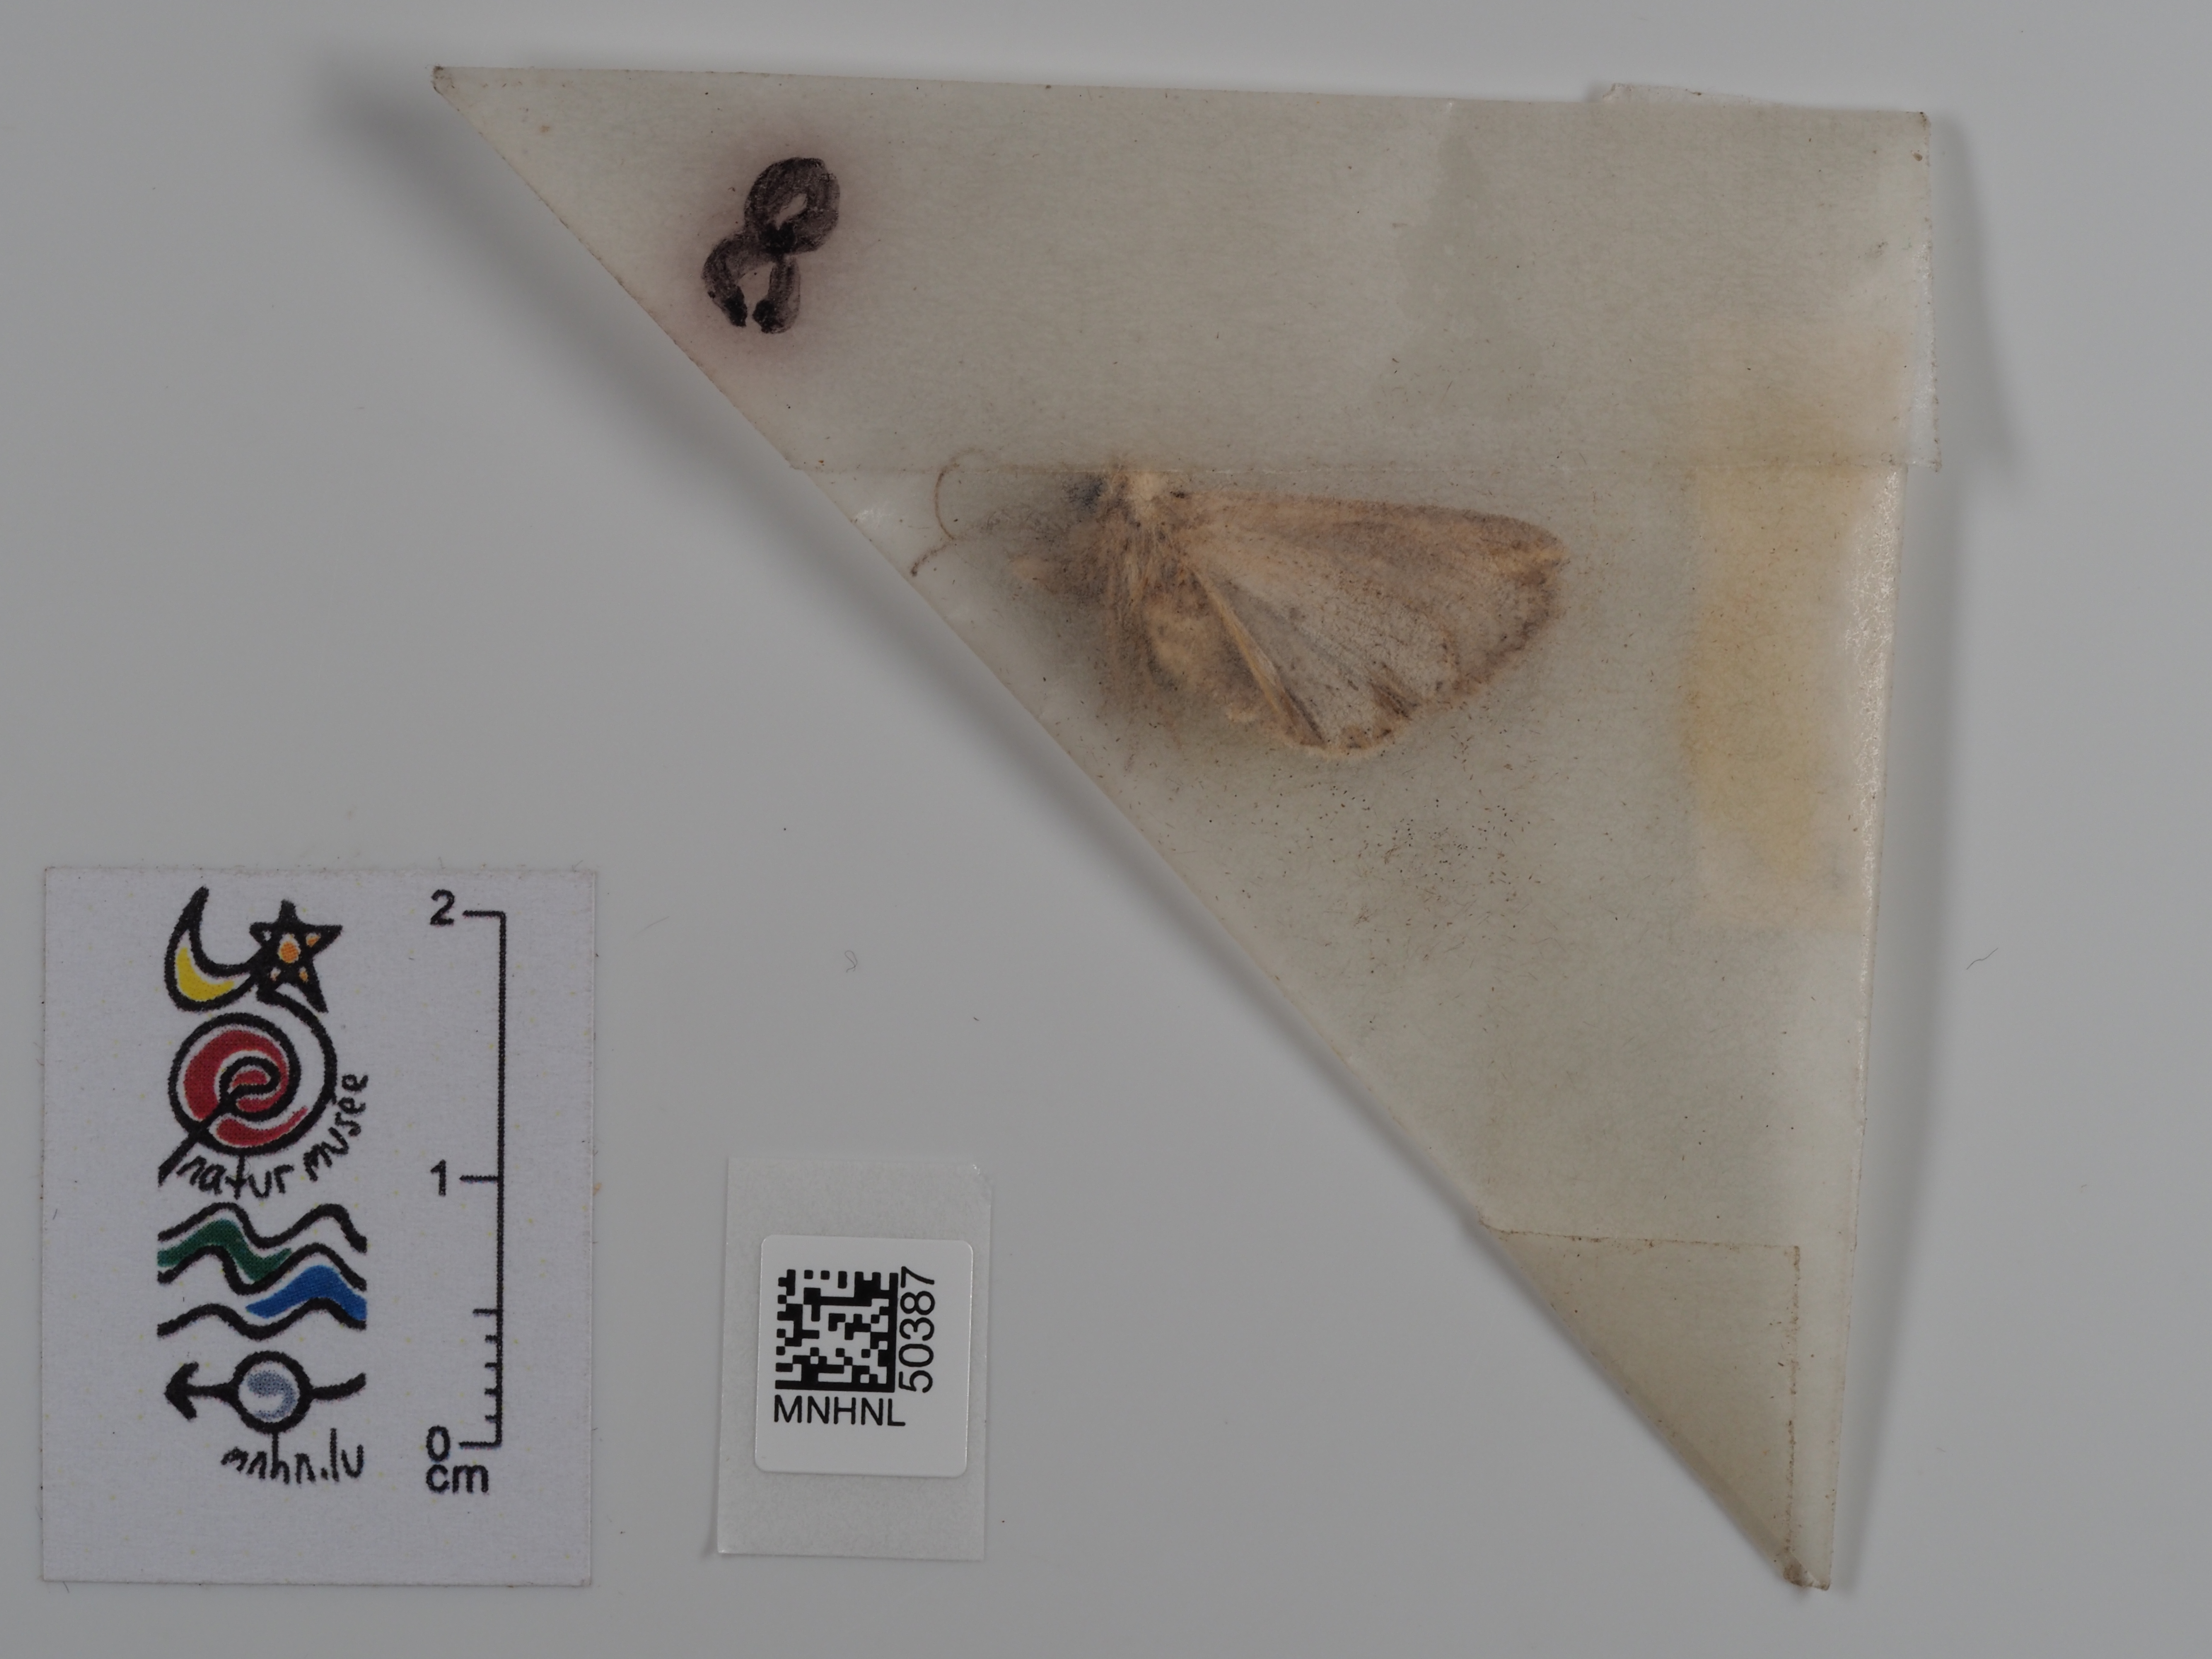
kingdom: Animalia
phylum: Arthropoda
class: Insecta
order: Lepidoptera
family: Noctuidae
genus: Mythimna
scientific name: Mythimna l-album
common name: L-album wainscot
